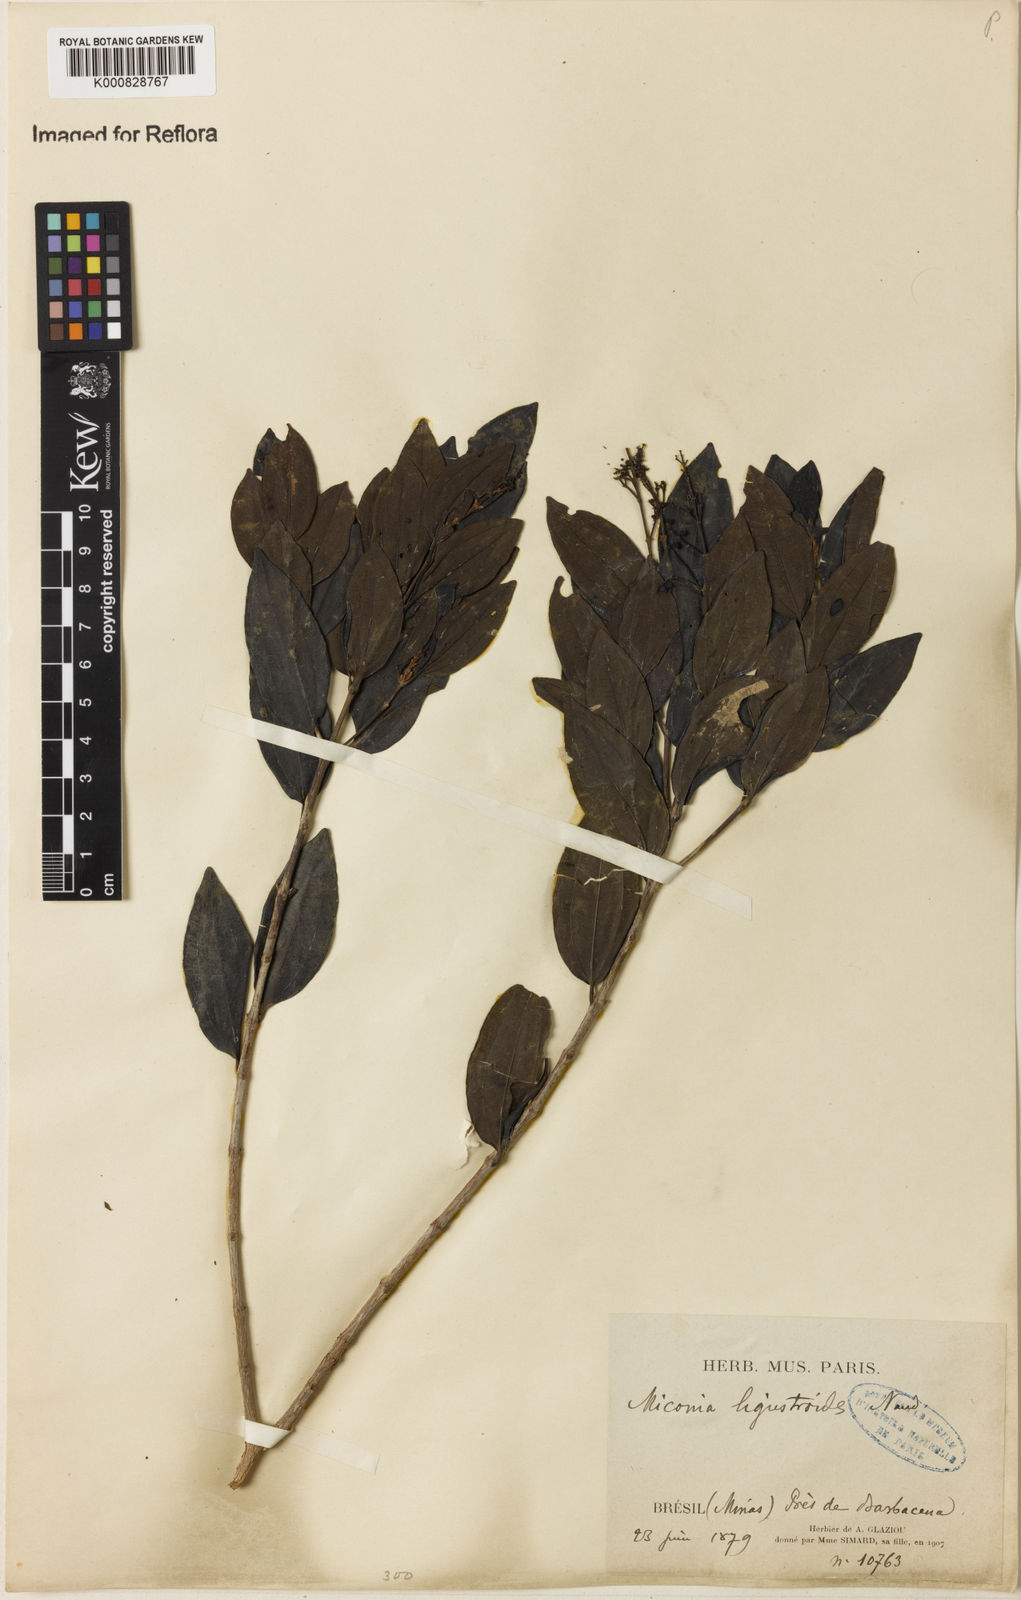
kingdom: Plantae
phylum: Tracheophyta
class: Magnoliopsida
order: Myrtales
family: Melastomataceae
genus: Miconia
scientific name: Miconia ligustroides
